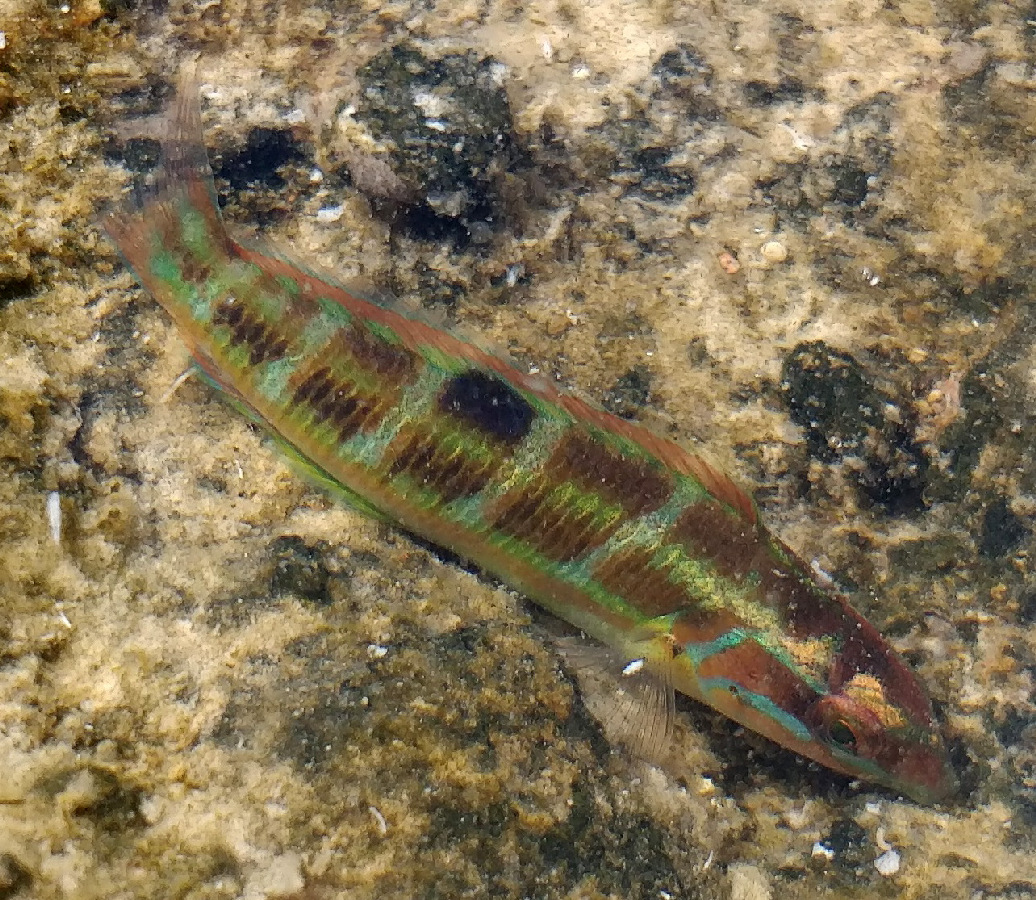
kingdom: Animalia
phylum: Chordata
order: Perciformes
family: Labridae
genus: Thalassoma
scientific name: Thalassoma pavo
